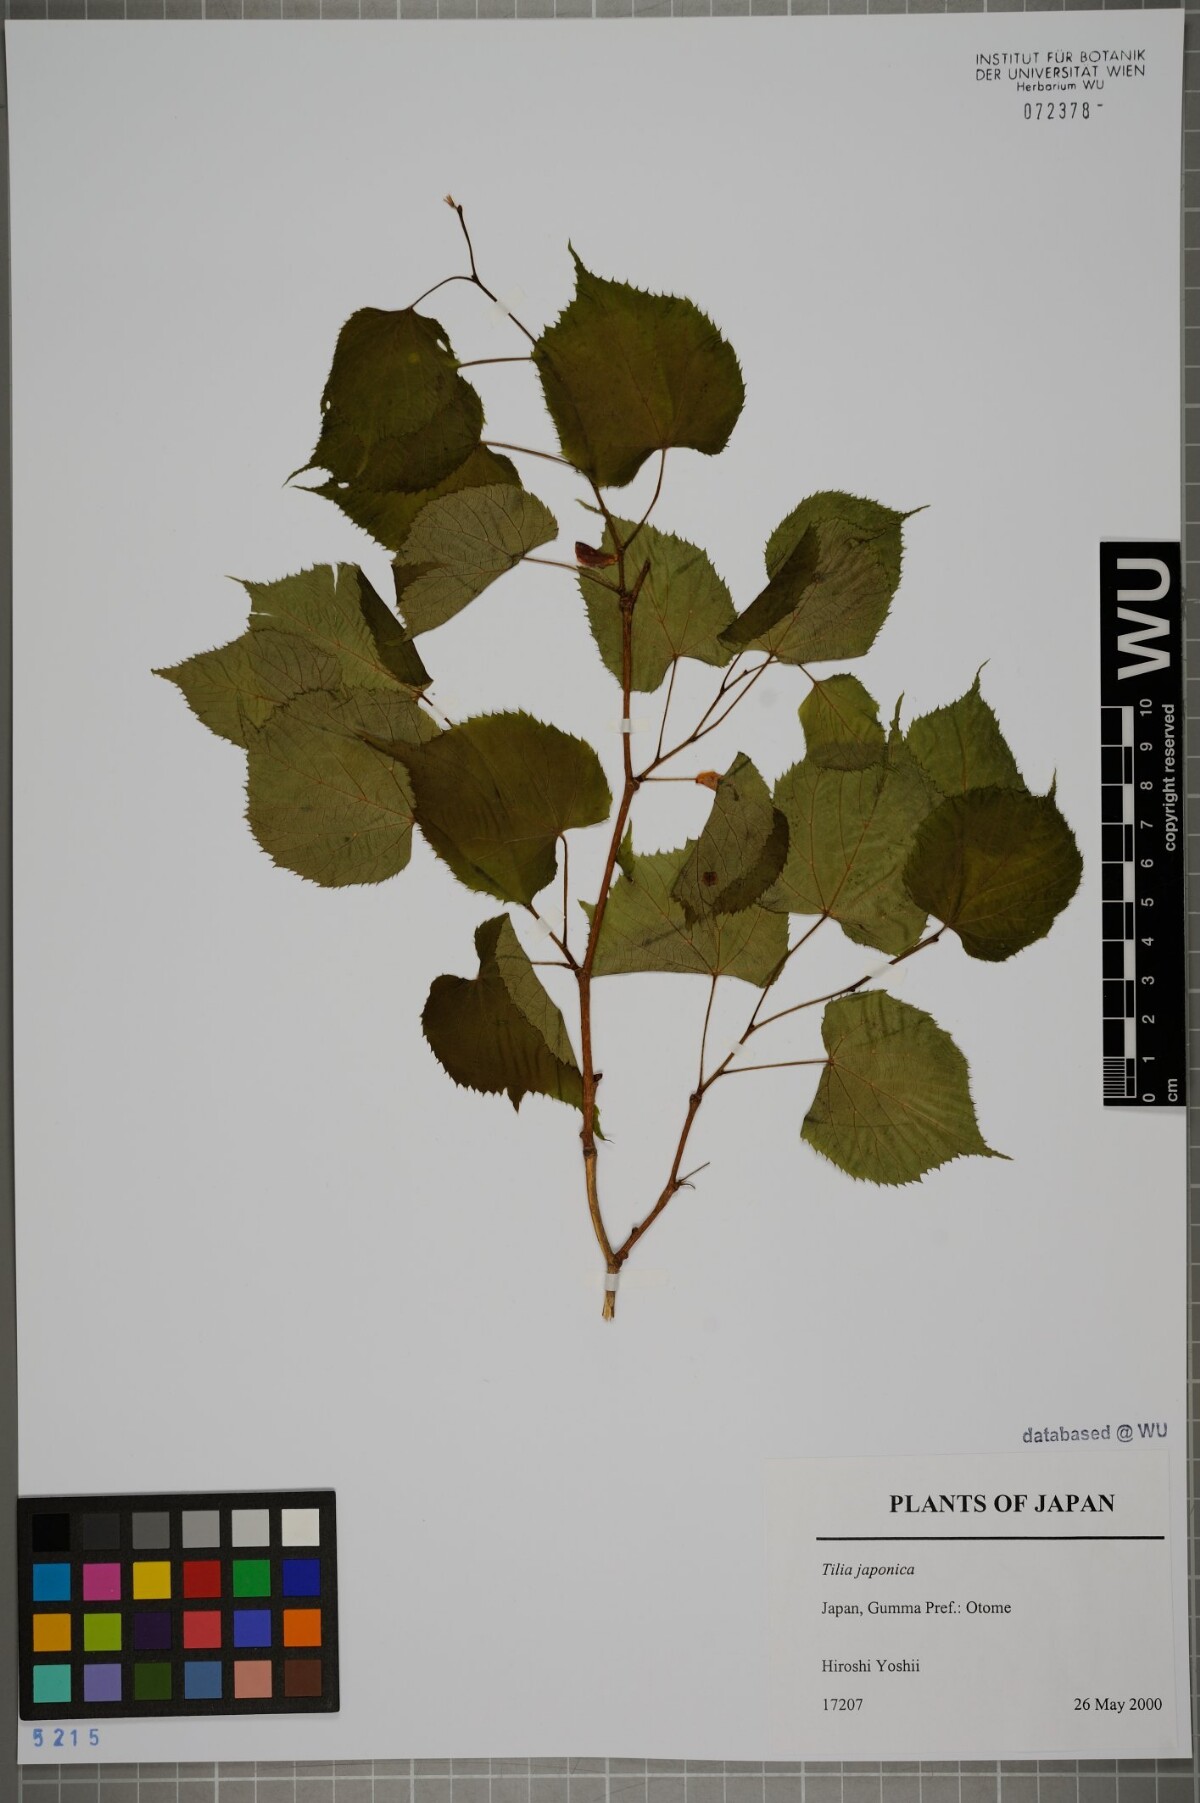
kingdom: Plantae
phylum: Tracheophyta
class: Magnoliopsida
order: Malvales
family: Malvaceae
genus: Tilia
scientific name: Tilia japonica
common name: Japanese lime
